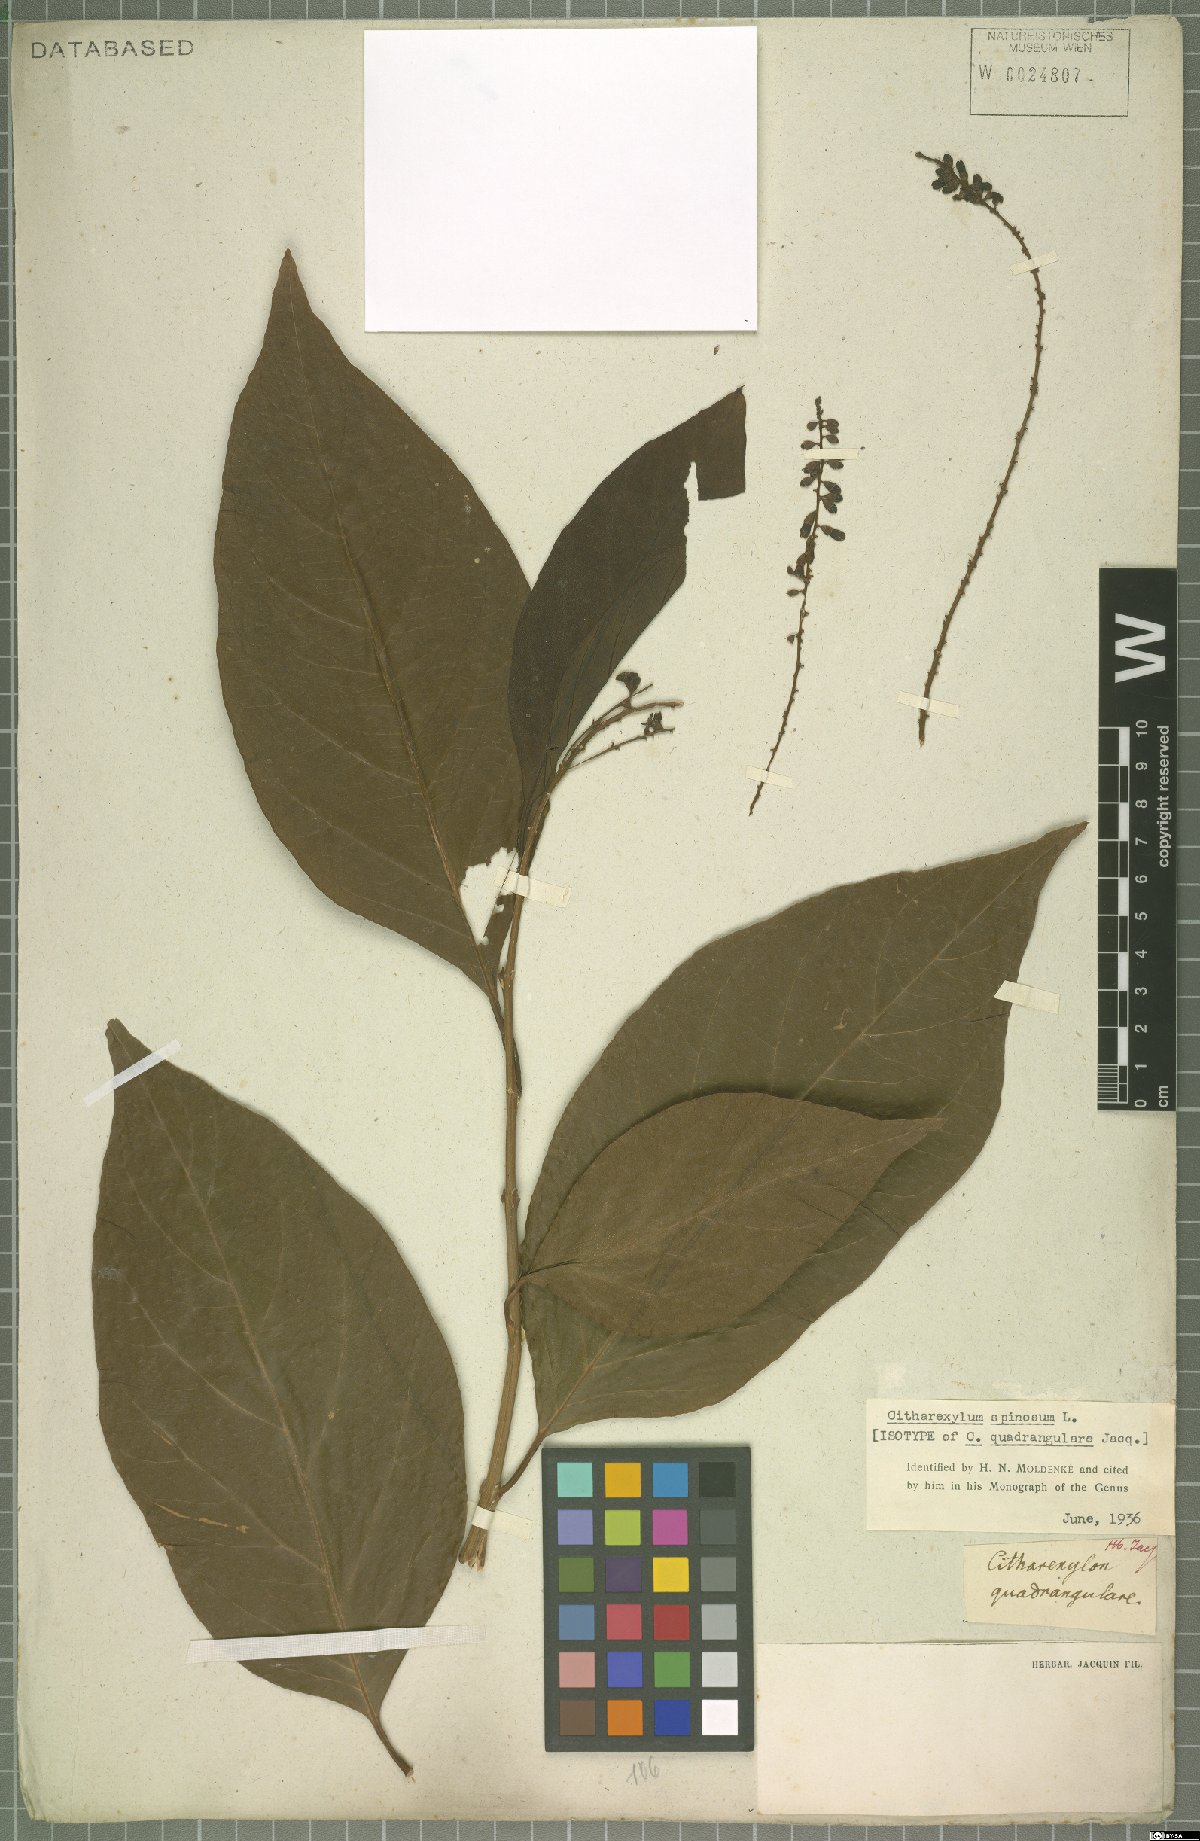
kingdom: Plantae
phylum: Tracheophyta
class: Magnoliopsida
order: Lamiales
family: Verbenaceae
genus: Citharexylum
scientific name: Citharexylum spinosum
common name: Fiddlewood
